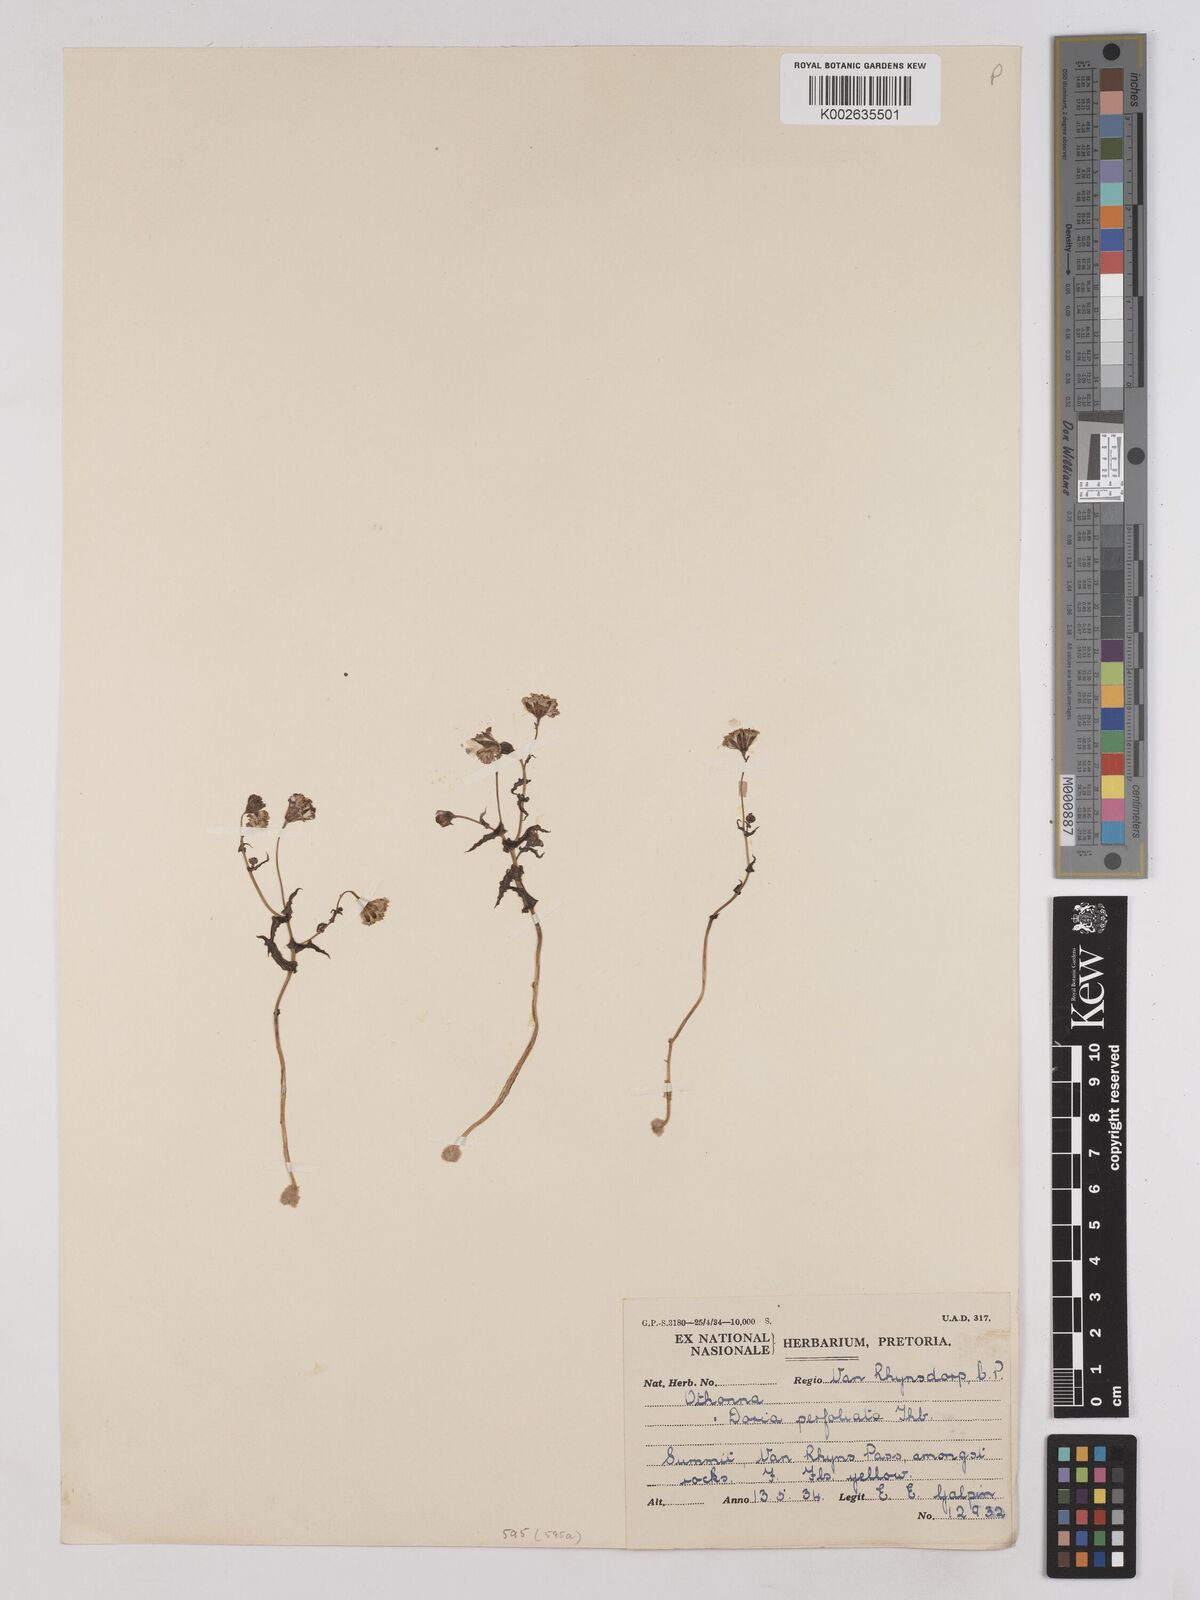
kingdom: Plantae
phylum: Tracheophyta
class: Magnoliopsida
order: Asterales
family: Asteraceae
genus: Othonna
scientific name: Othonna perfoliata
